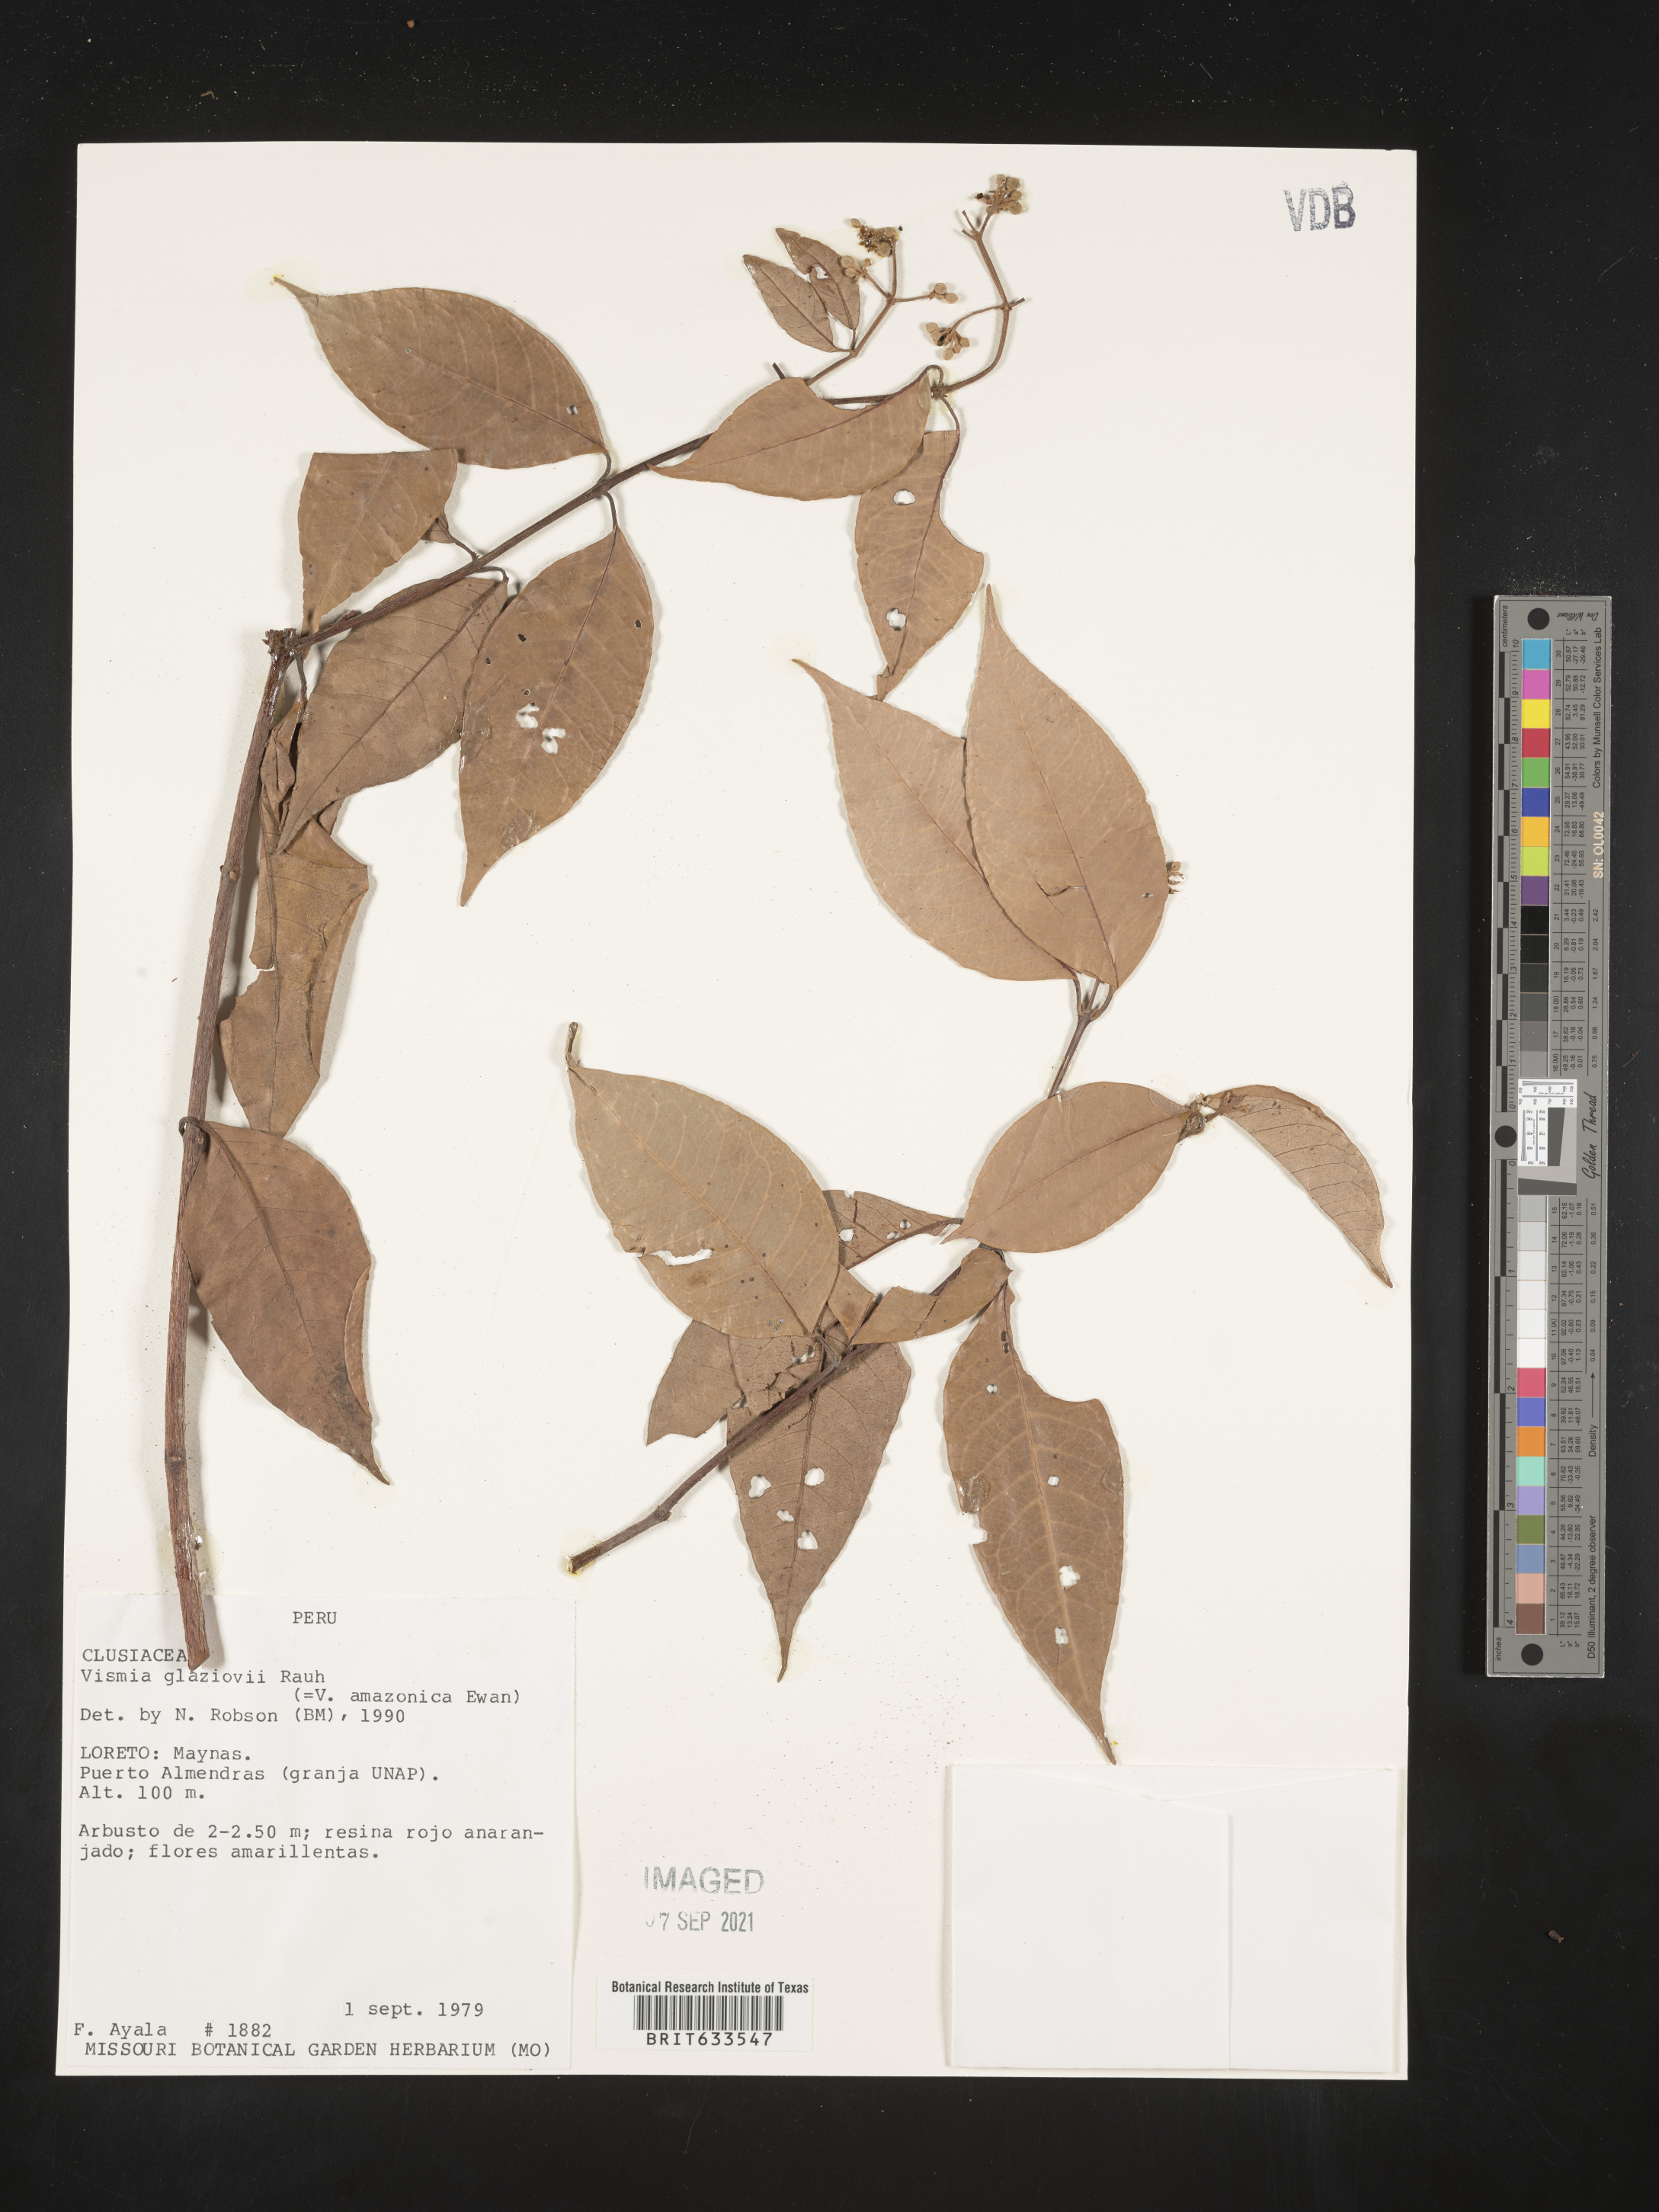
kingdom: Plantae
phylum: Tracheophyta
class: Magnoliopsida
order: Malpighiales
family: Hypericaceae
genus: Vismia
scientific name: Vismia
